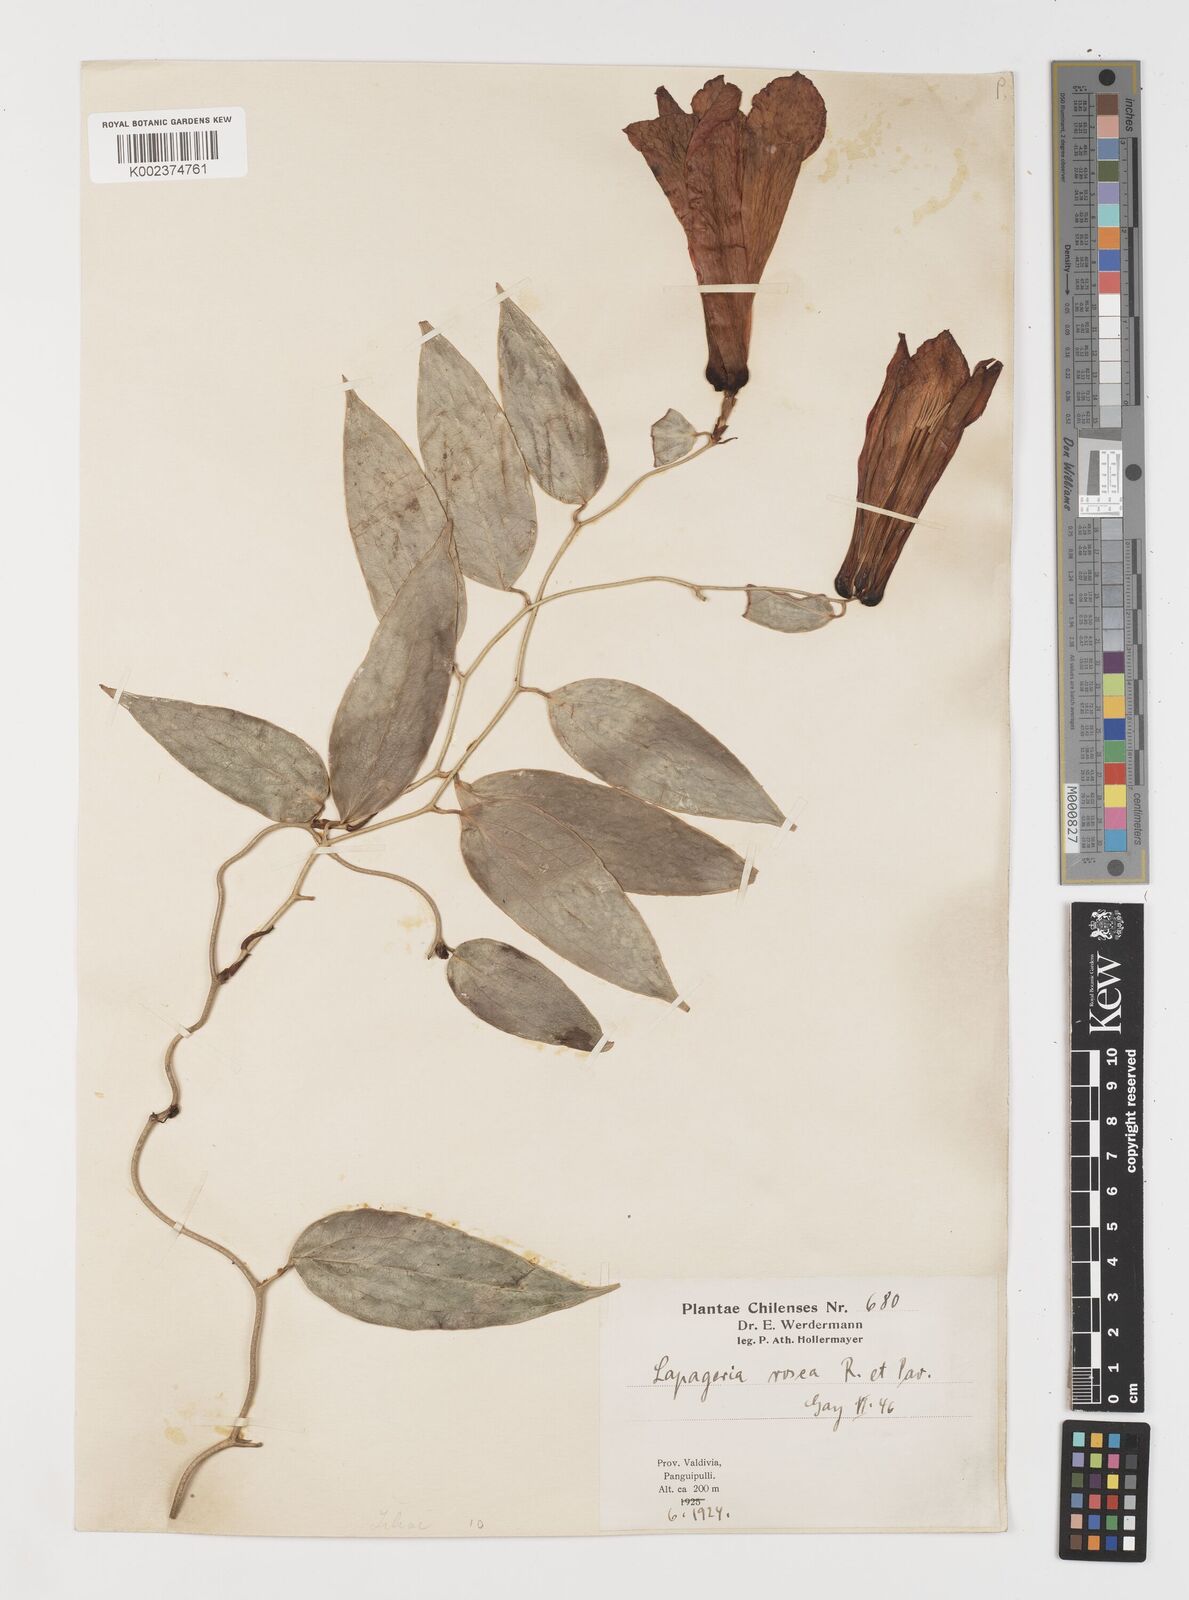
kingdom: Plantae
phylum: Tracheophyta
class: Liliopsida
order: Liliales
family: Philesiaceae
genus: Lapageria
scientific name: Lapageria rosea
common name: Chilean-bellflower
